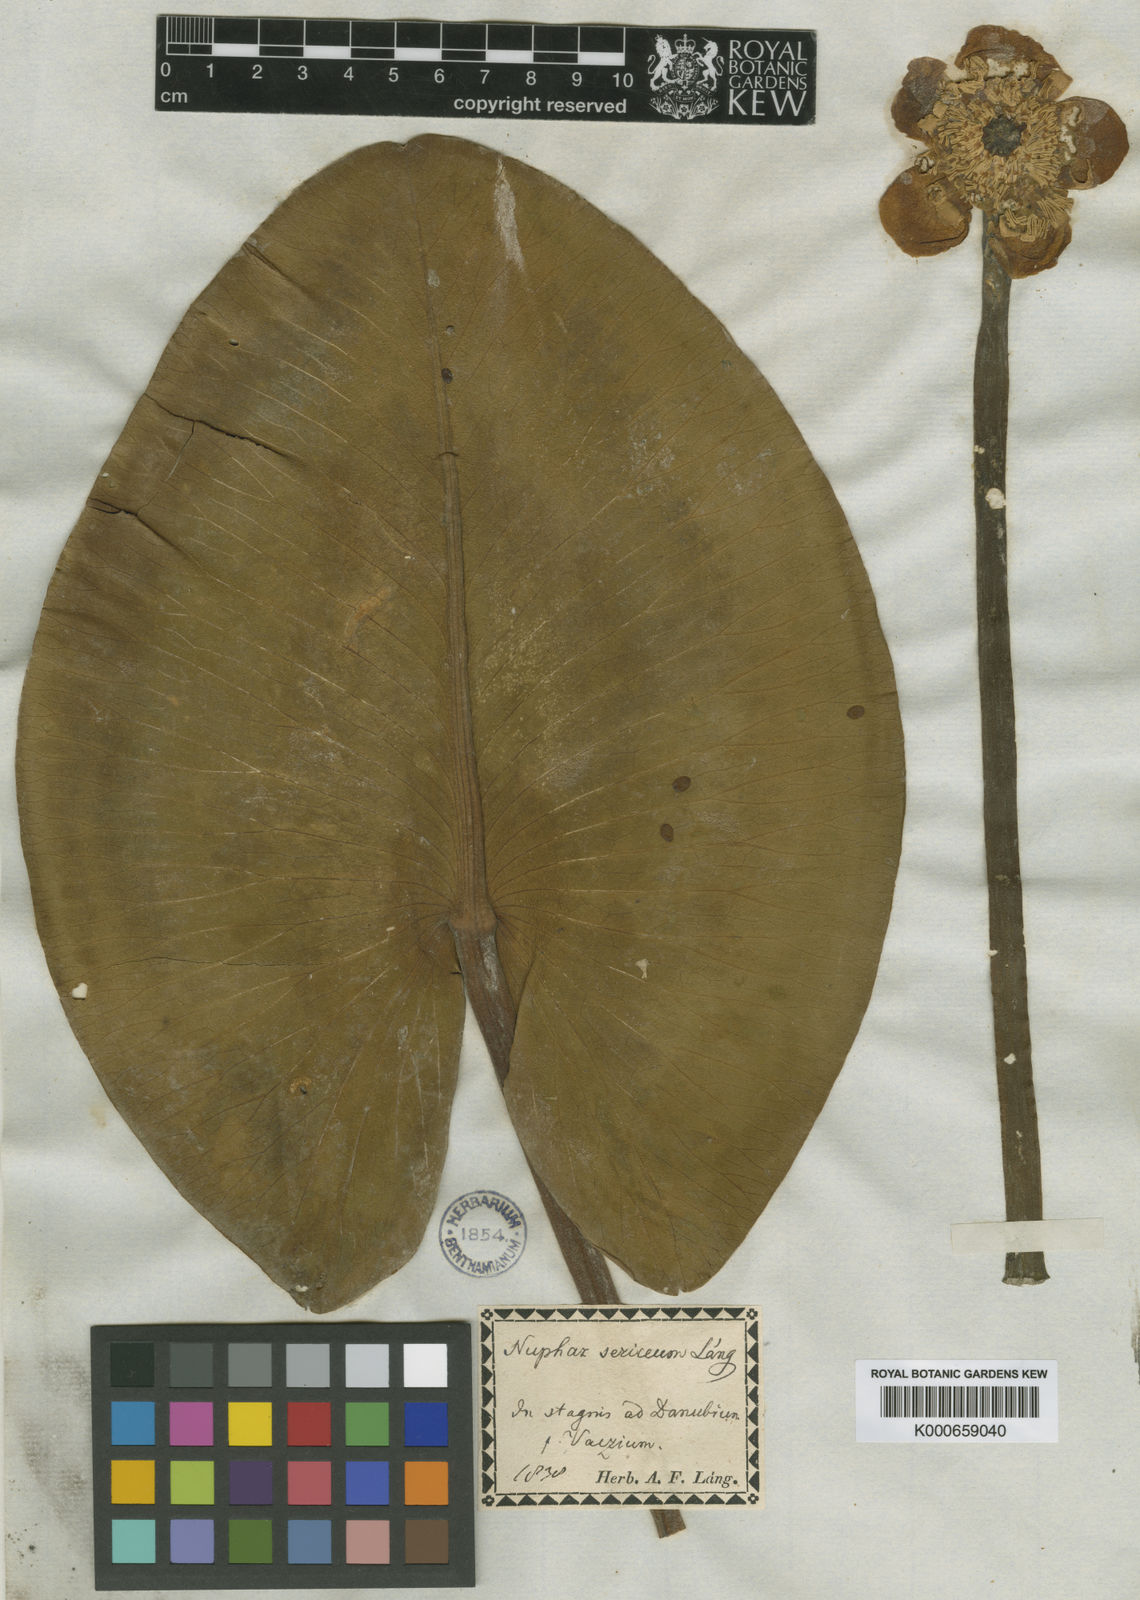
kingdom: Plantae
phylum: Tracheophyta
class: Magnoliopsida
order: Nymphaeales
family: Nymphaeaceae
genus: Nuphar
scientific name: Nuphar
